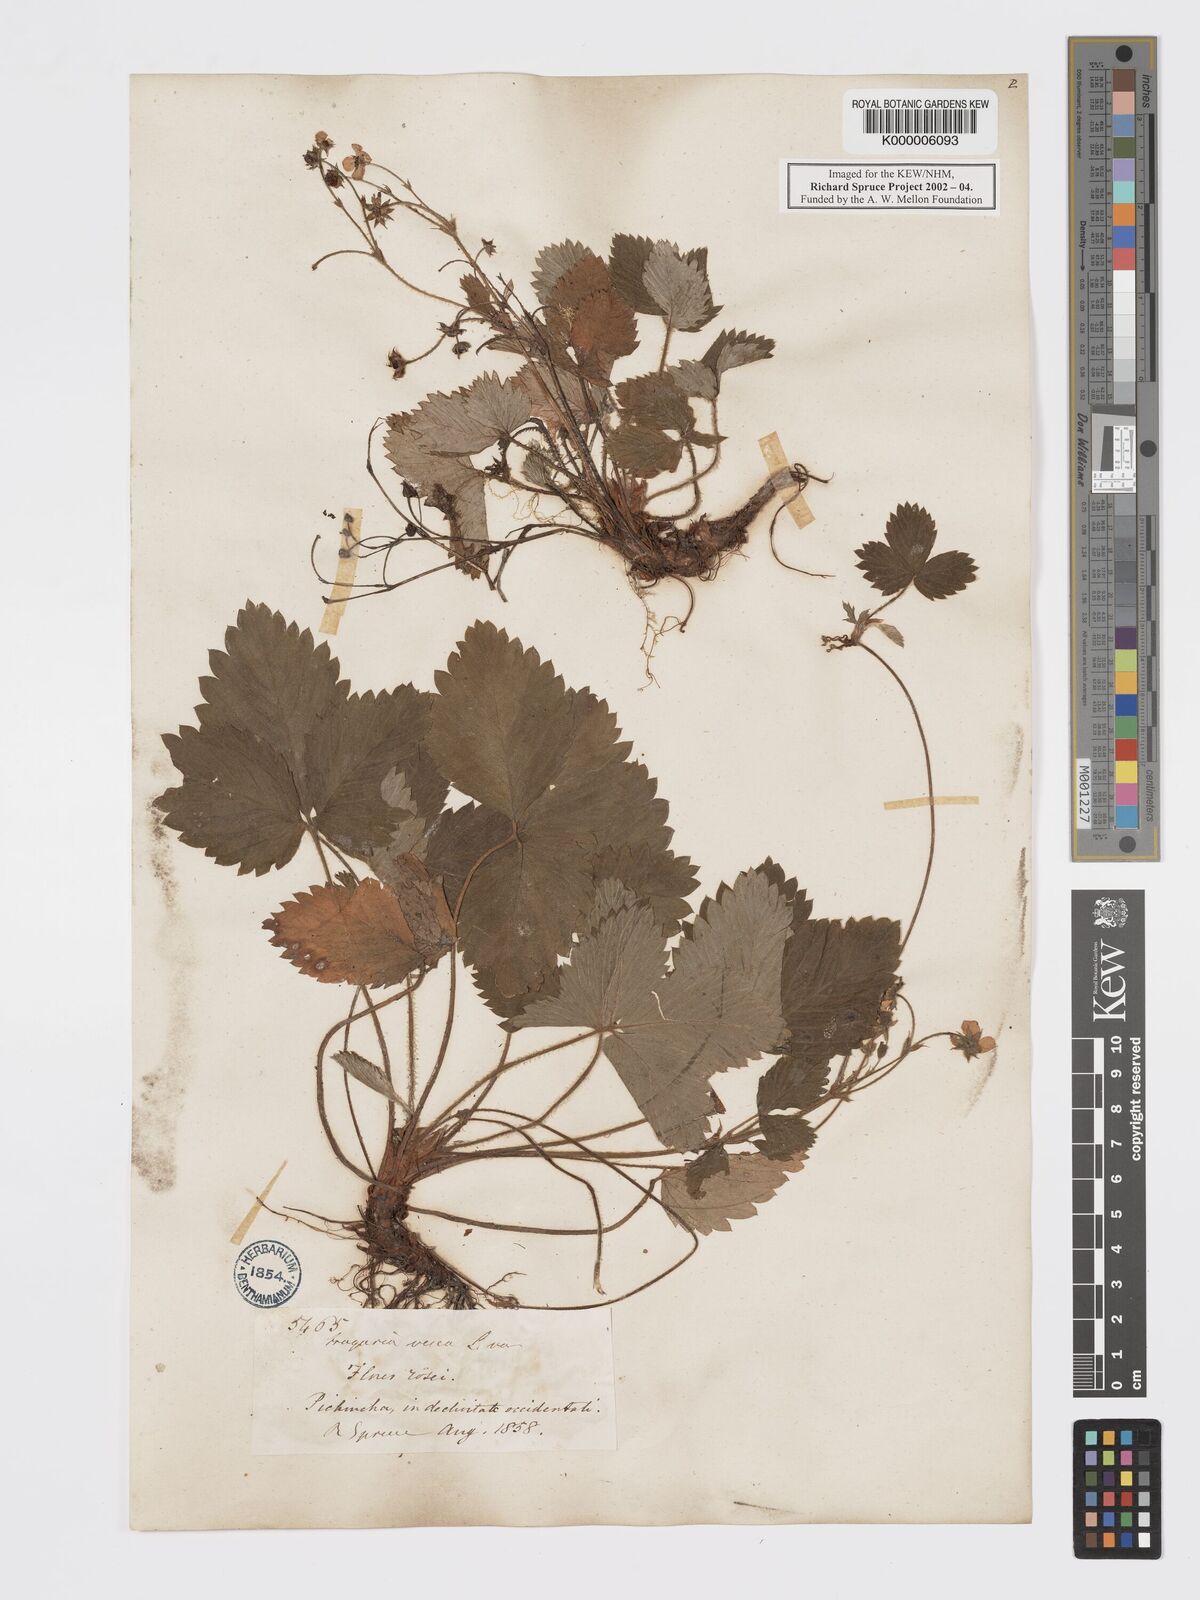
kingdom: Plantae
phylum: Tracheophyta
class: Magnoliopsida
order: Rosales
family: Rosaceae
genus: Fragaria
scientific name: Fragaria vesca
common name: Wild strawberry
